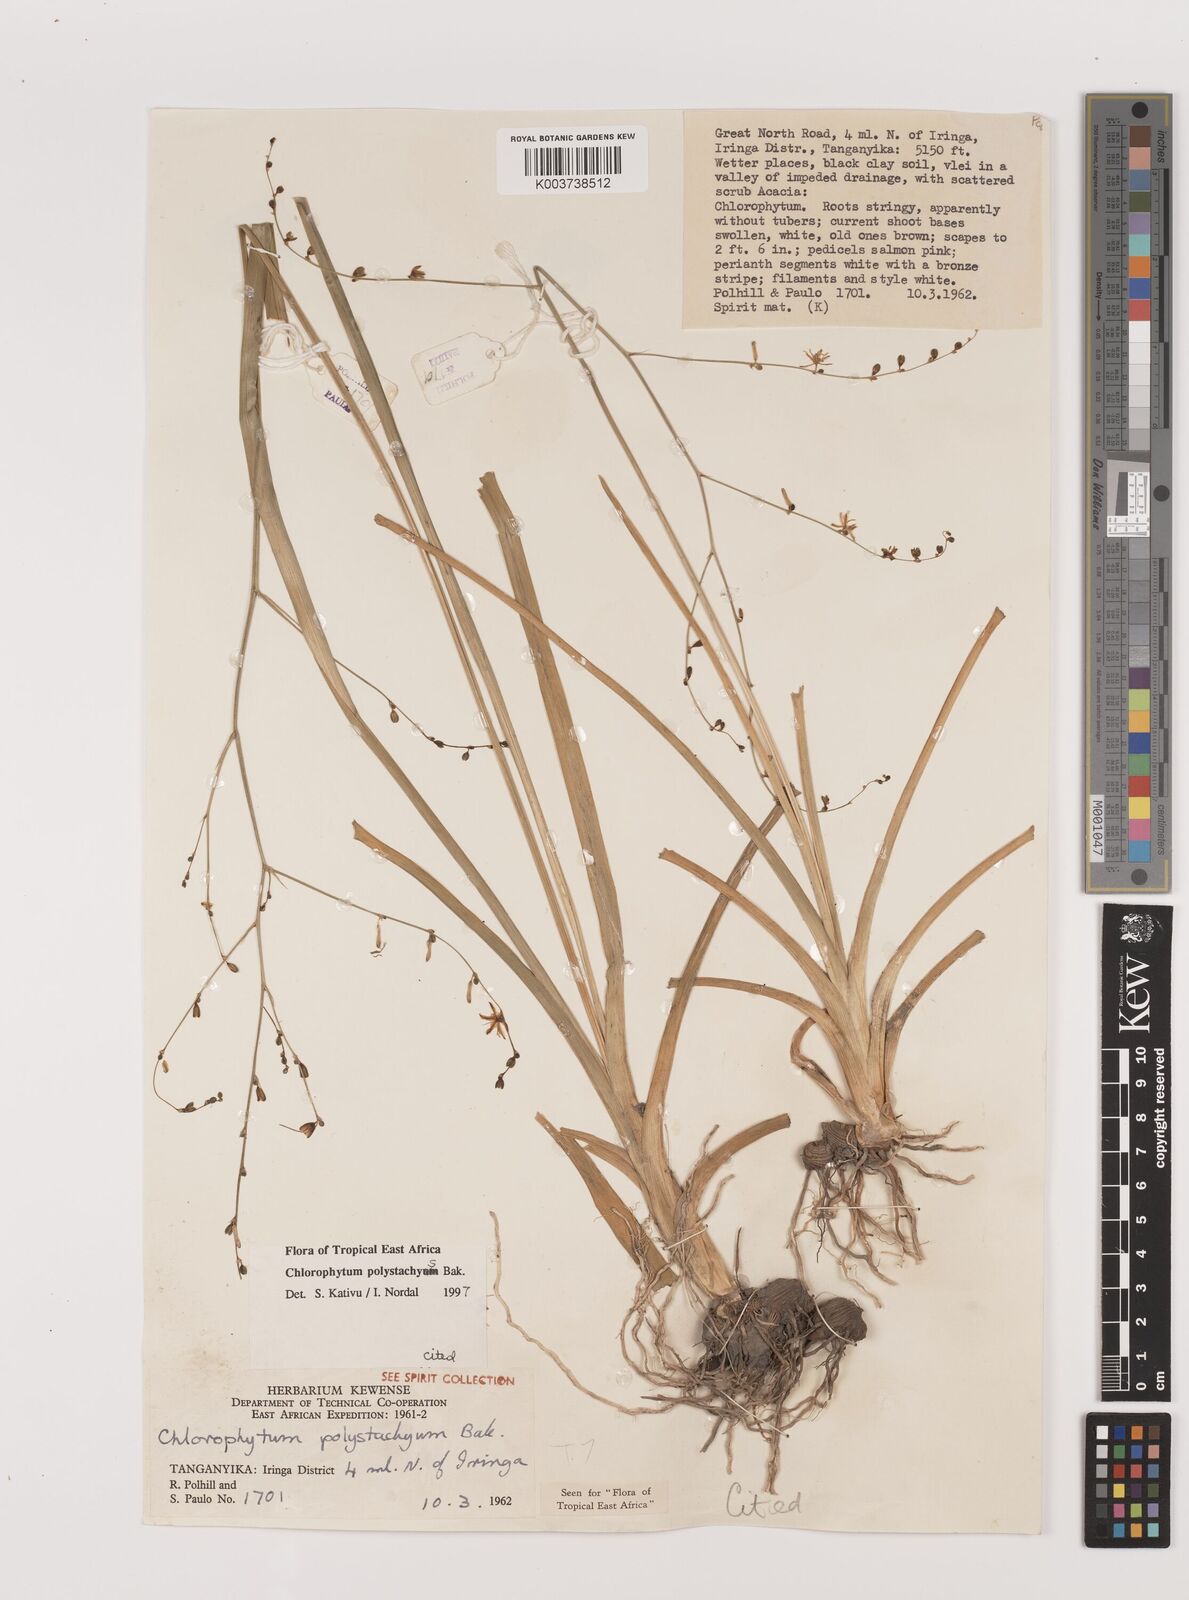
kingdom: Plantae
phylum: Tracheophyta
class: Liliopsida
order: Asparagales
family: Asparagaceae
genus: Chlorophytum
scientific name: Chlorophytum polystachys
